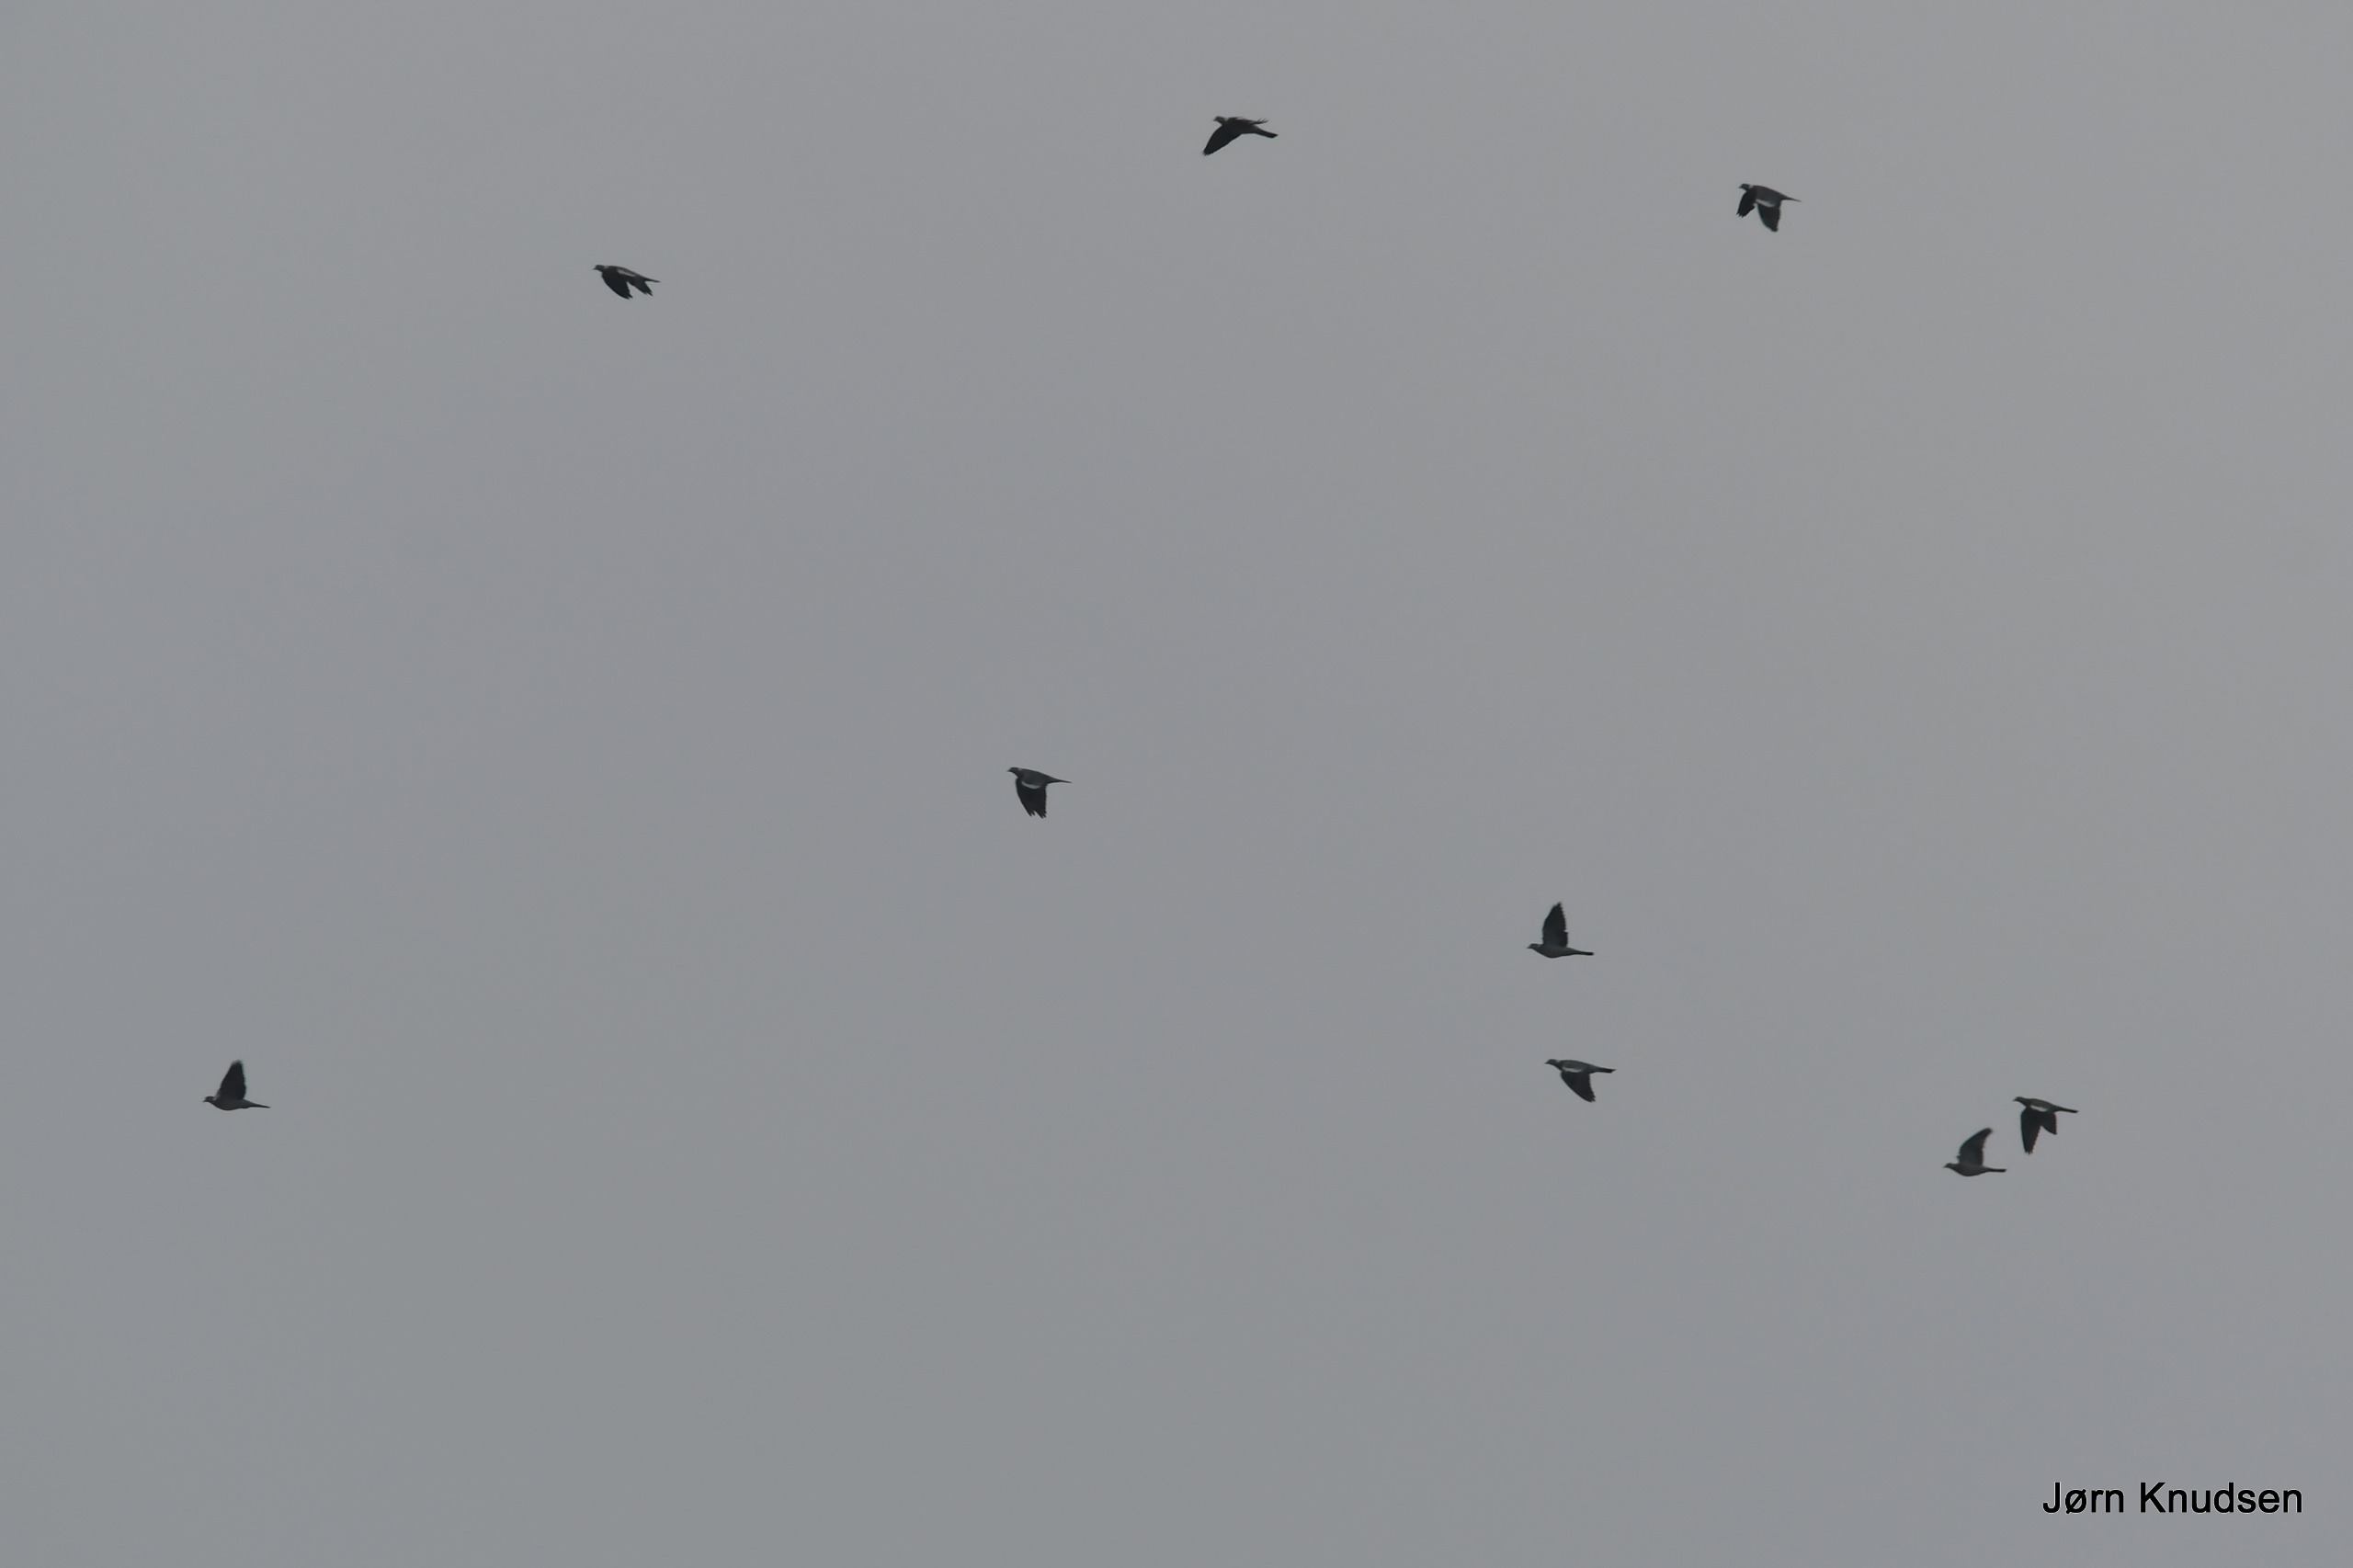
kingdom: Animalia
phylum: Chordata
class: Aves
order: Columbiformes
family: Columbidae
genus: Columba
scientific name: Columba palumbus
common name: Ringdue
